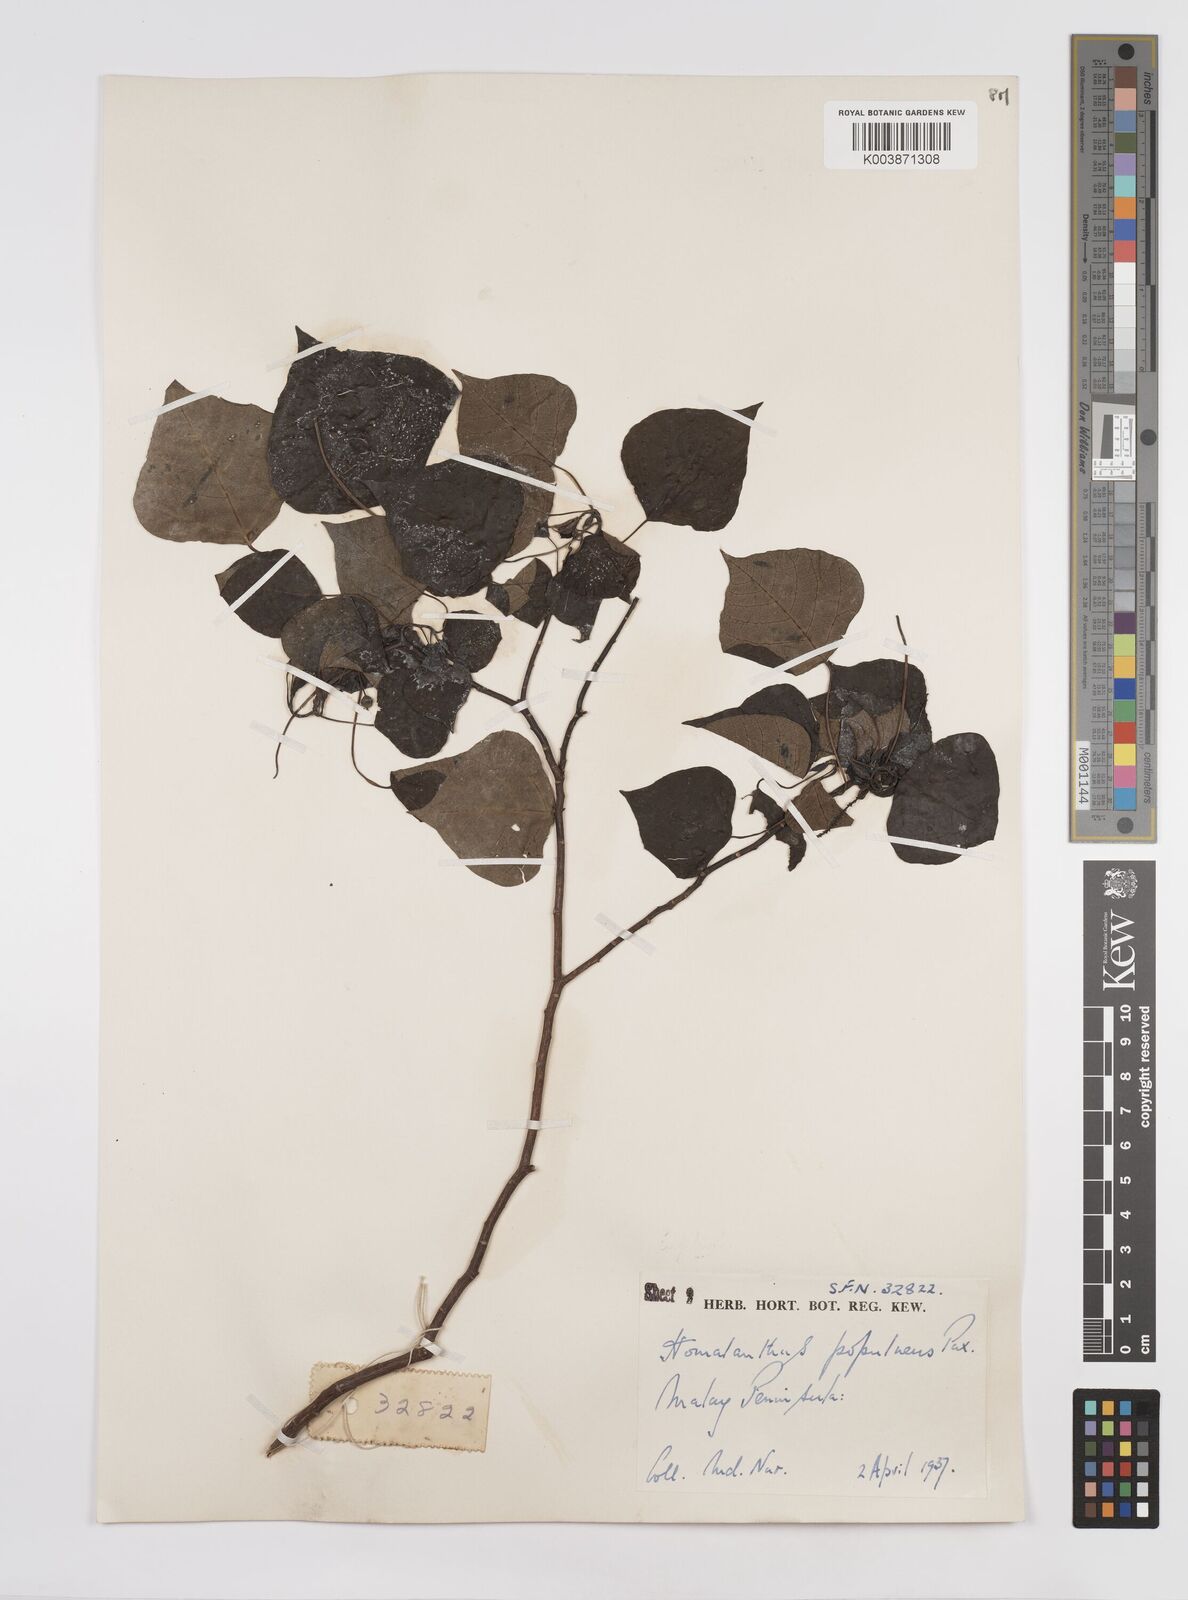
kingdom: Plantae
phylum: Tracheophyta
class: Magnoliopsida
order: Malpighiales
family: Euphorbiaceae
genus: Homalanthus
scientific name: Homalanthus populneus
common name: Spurge
